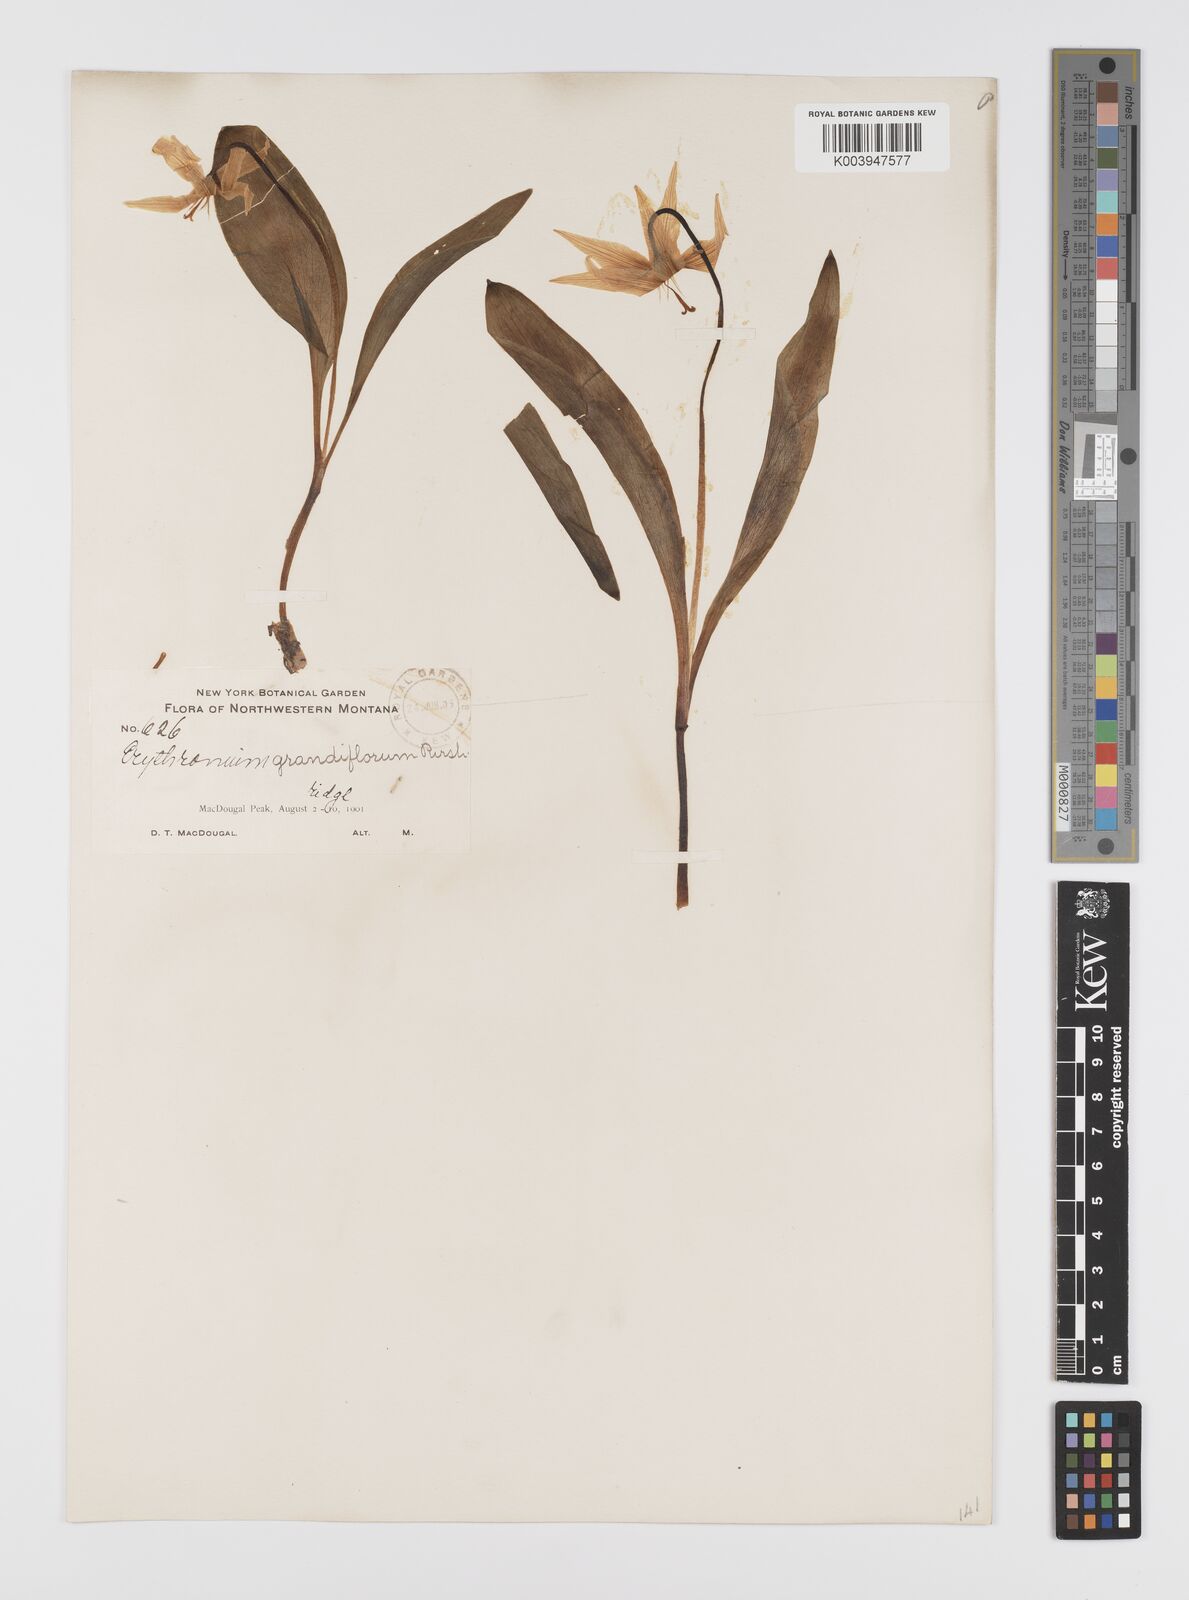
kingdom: Plantae
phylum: Tracheophyta
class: Liliopsida
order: Liliales
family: Liliaceae
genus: Erythronium
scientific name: Erythronium grandiflorum
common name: Avalanche-lily
